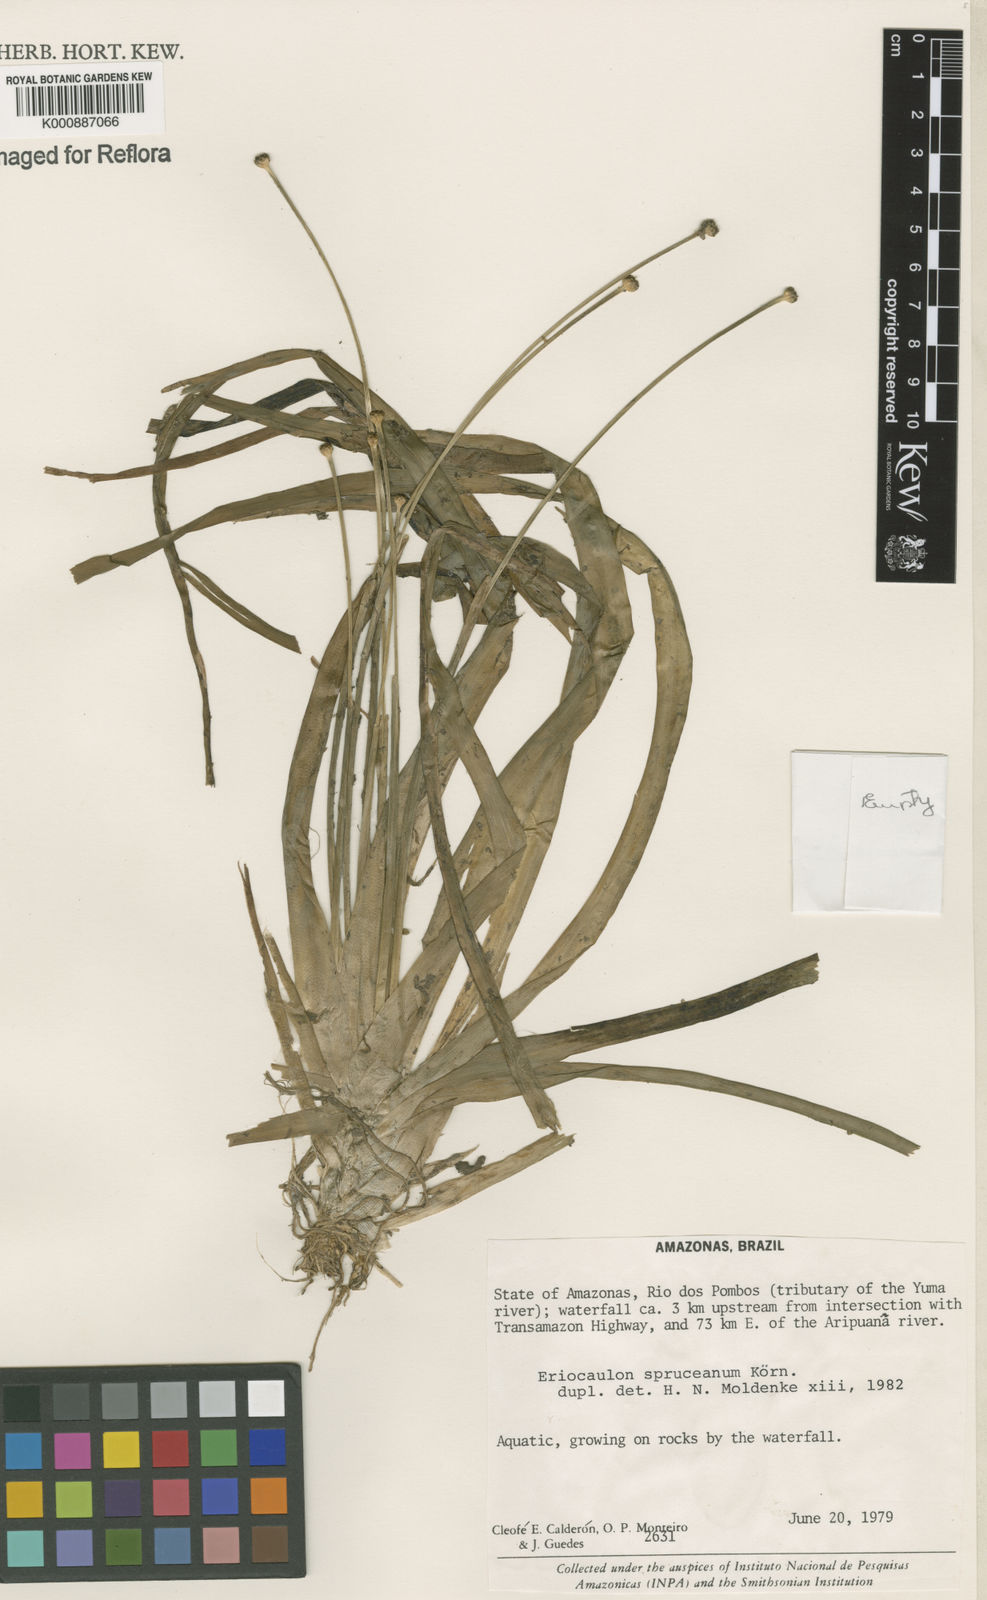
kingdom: Plantae
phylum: Tracheophyta
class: Liliopsida
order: Poales
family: Eriocaulaceae
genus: Eriocaulon
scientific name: Eriocaulon
